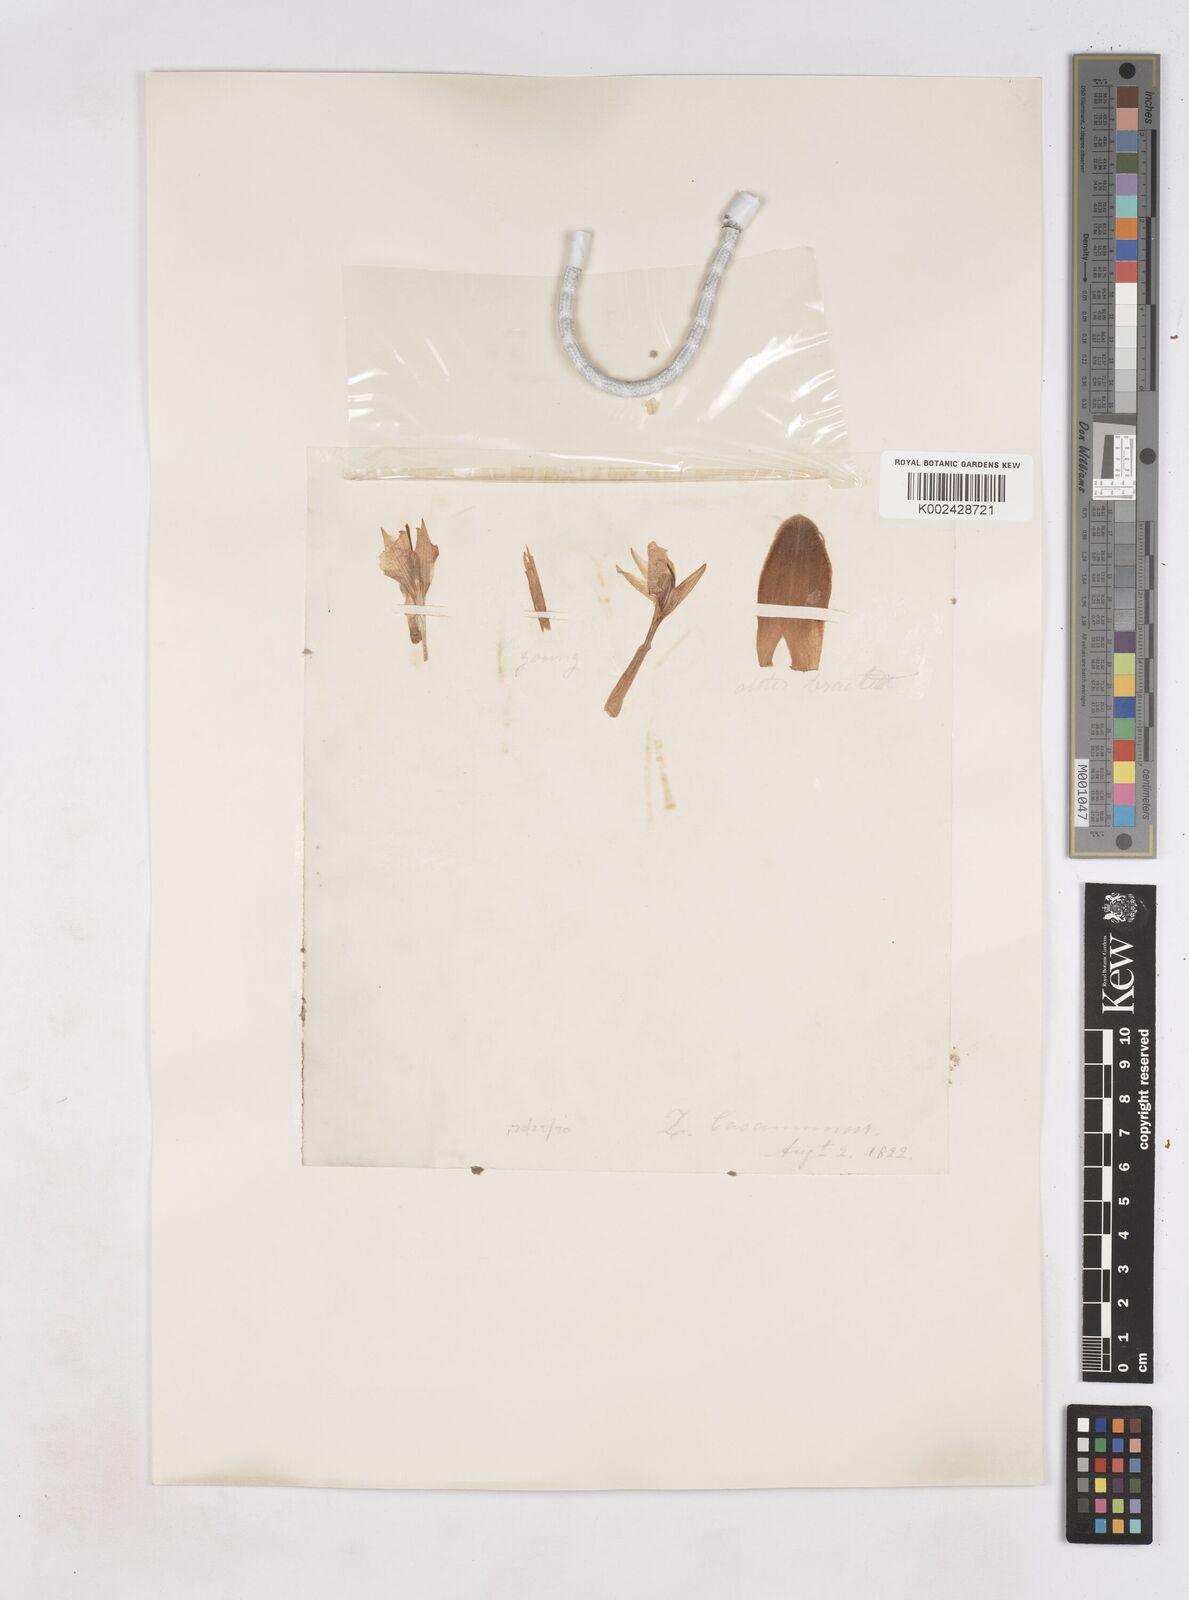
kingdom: Plantae
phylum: Tracheophyta
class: Liliopsida
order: Zingiberales
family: Zingiberaceae
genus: Zingiber
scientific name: Zingiber montanum
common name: Bengal ginger
